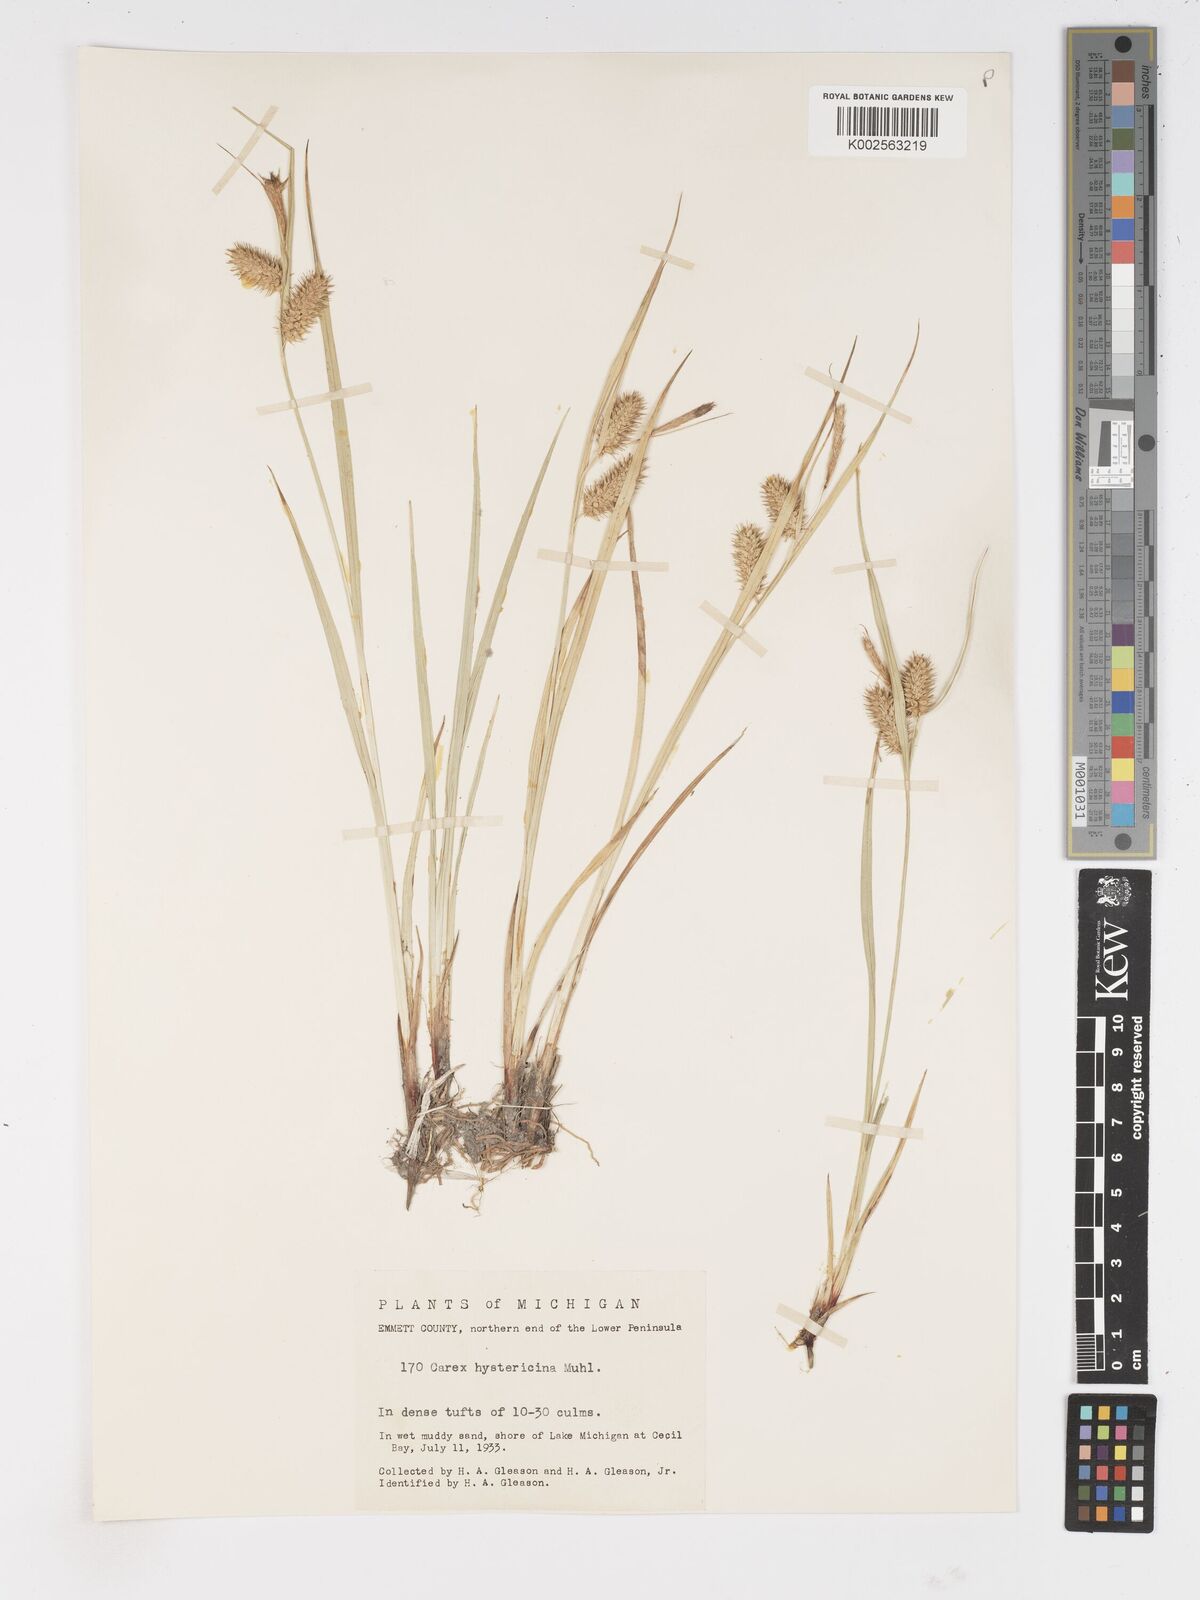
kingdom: Plantae
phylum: Tracheophyta
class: Liliopsida
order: Poales
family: Cyperaceae
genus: Carex
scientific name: Carex hystericina
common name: Bottlebrush sedge
